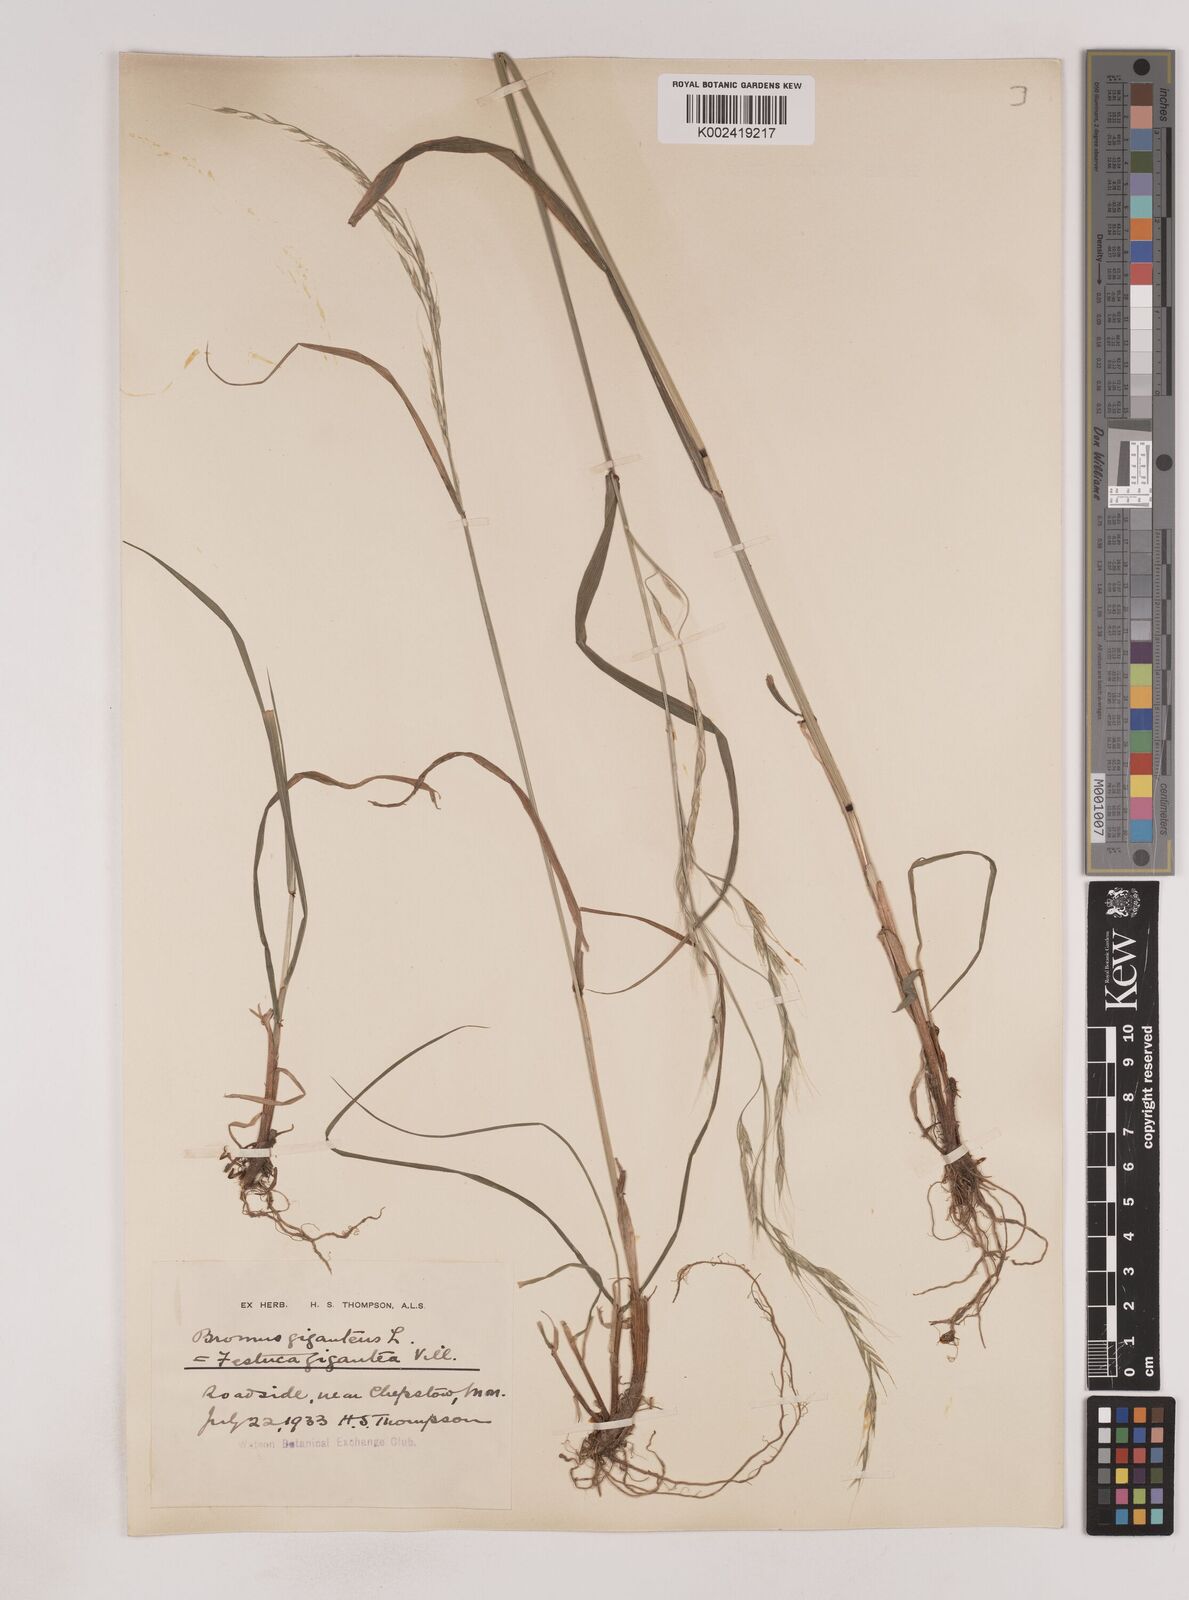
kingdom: Plantae
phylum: Tracheophyta
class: Liliopsida
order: Poales
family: Poaceae
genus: Lolium
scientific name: Lolium giganteum
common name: Giant fescue
